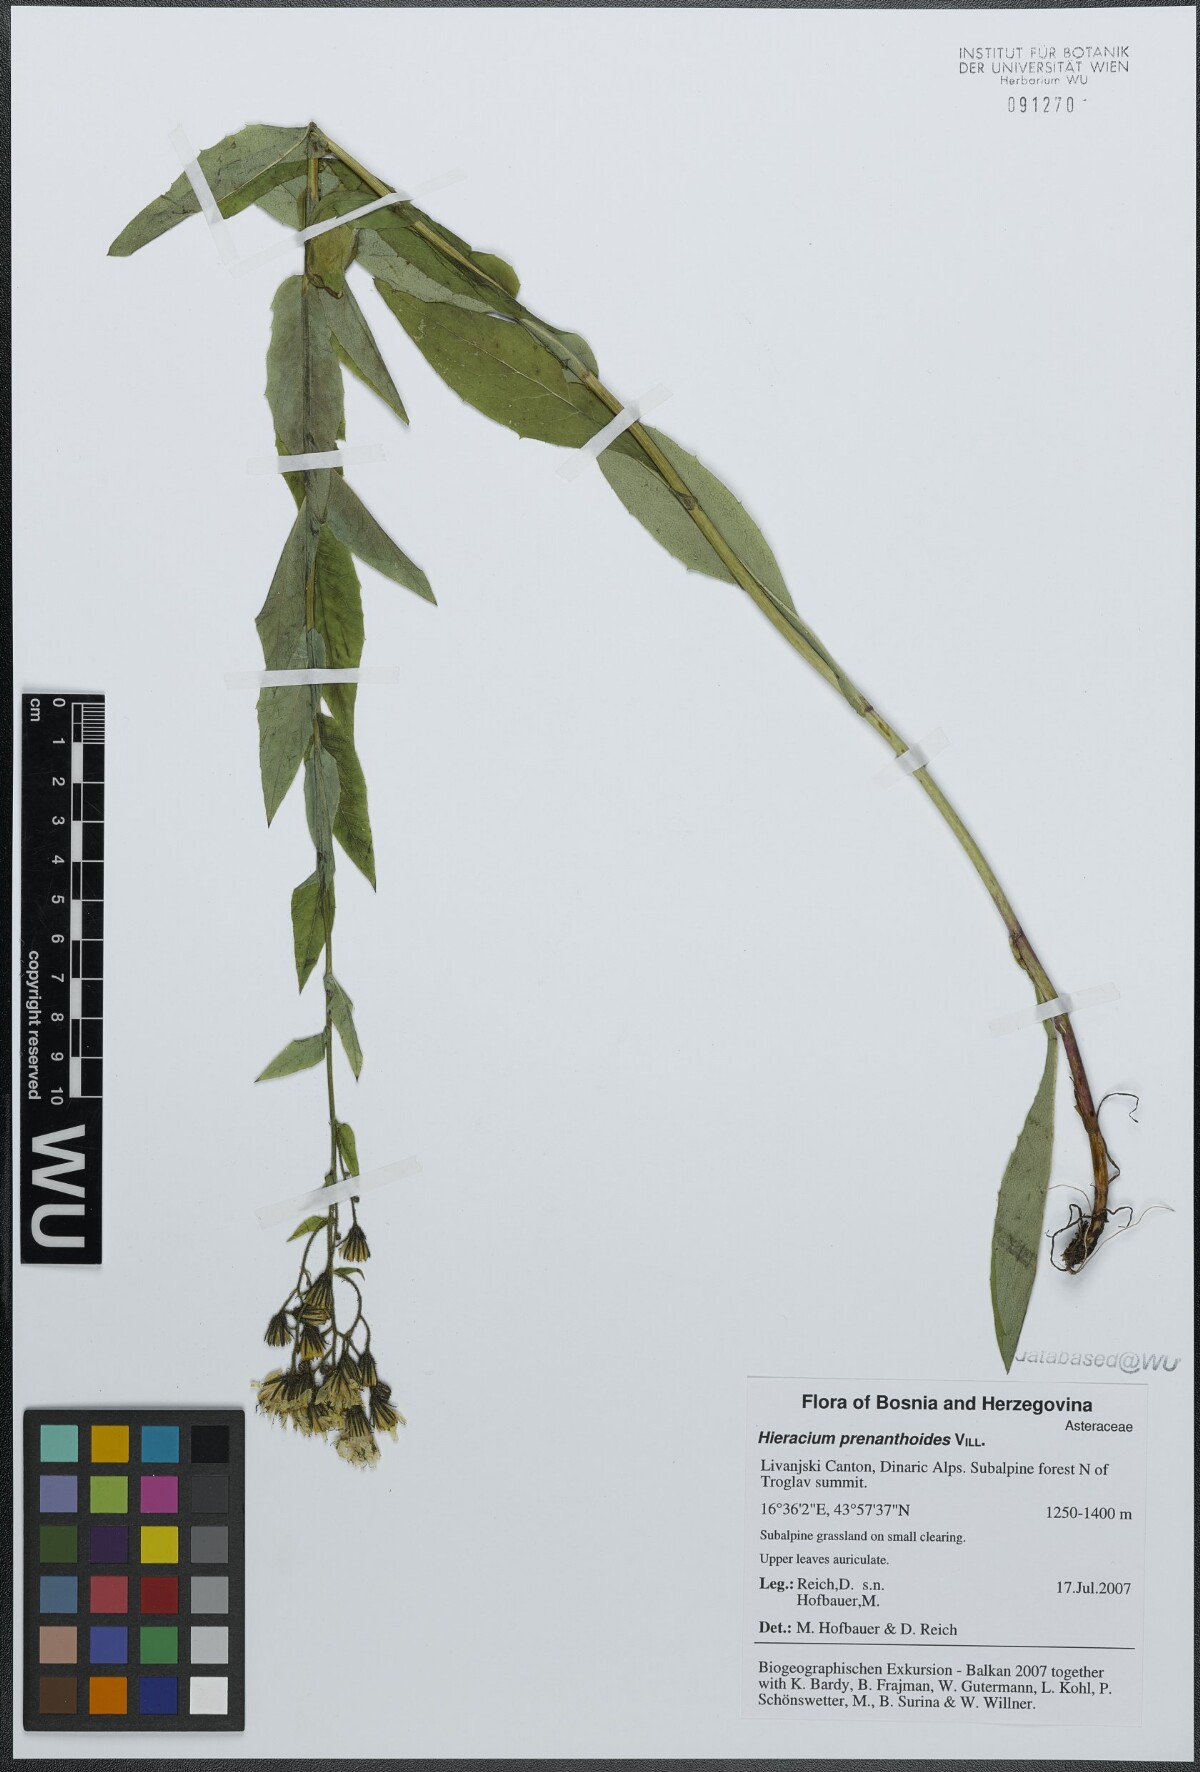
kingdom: Plantae
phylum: Tracheophyta
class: Magnoliopsida
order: Asterales
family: Asteraceae
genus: Hieracium
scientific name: Hieracium prenanthoides
